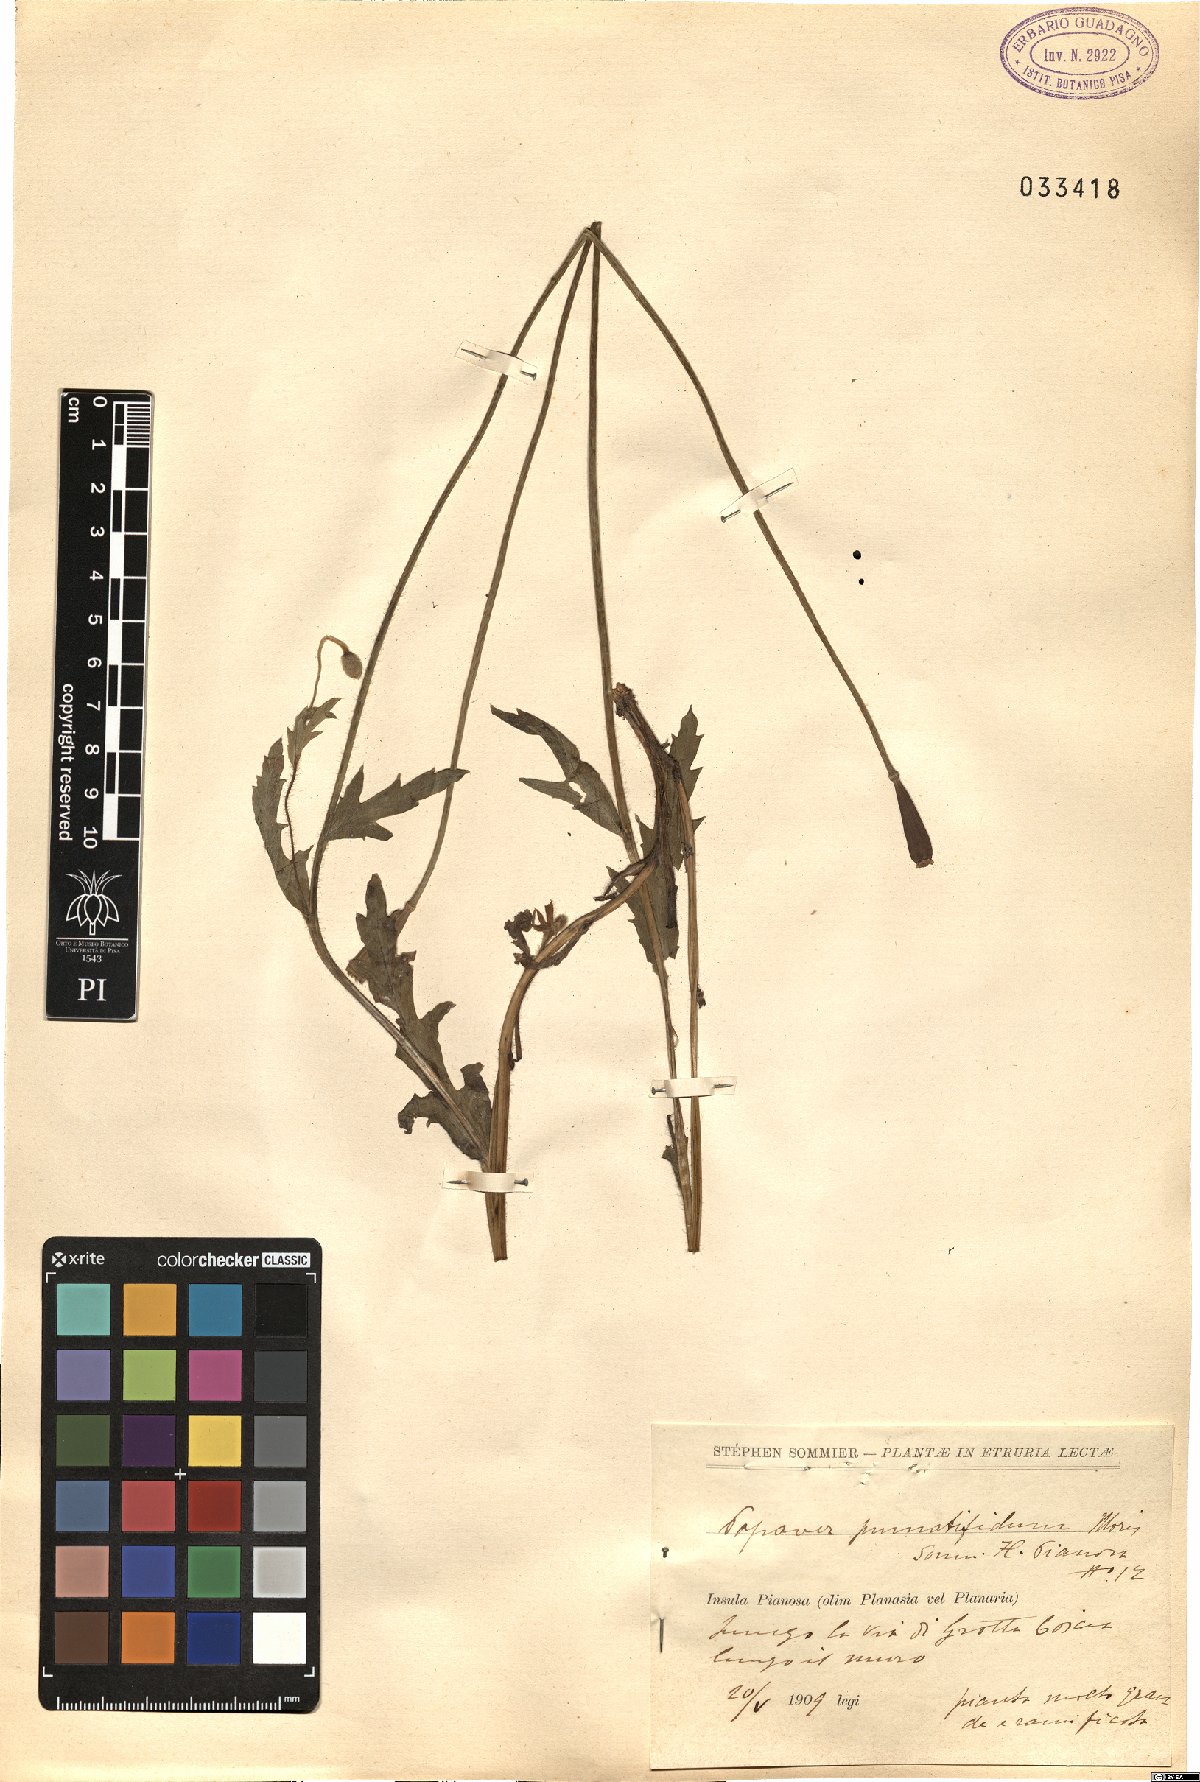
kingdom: Plantae
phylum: Tracheophyta
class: Magnoliopsida
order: Ranunculales
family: Papaveraceae
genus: Papaver
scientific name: Papaver pinnatifidum
